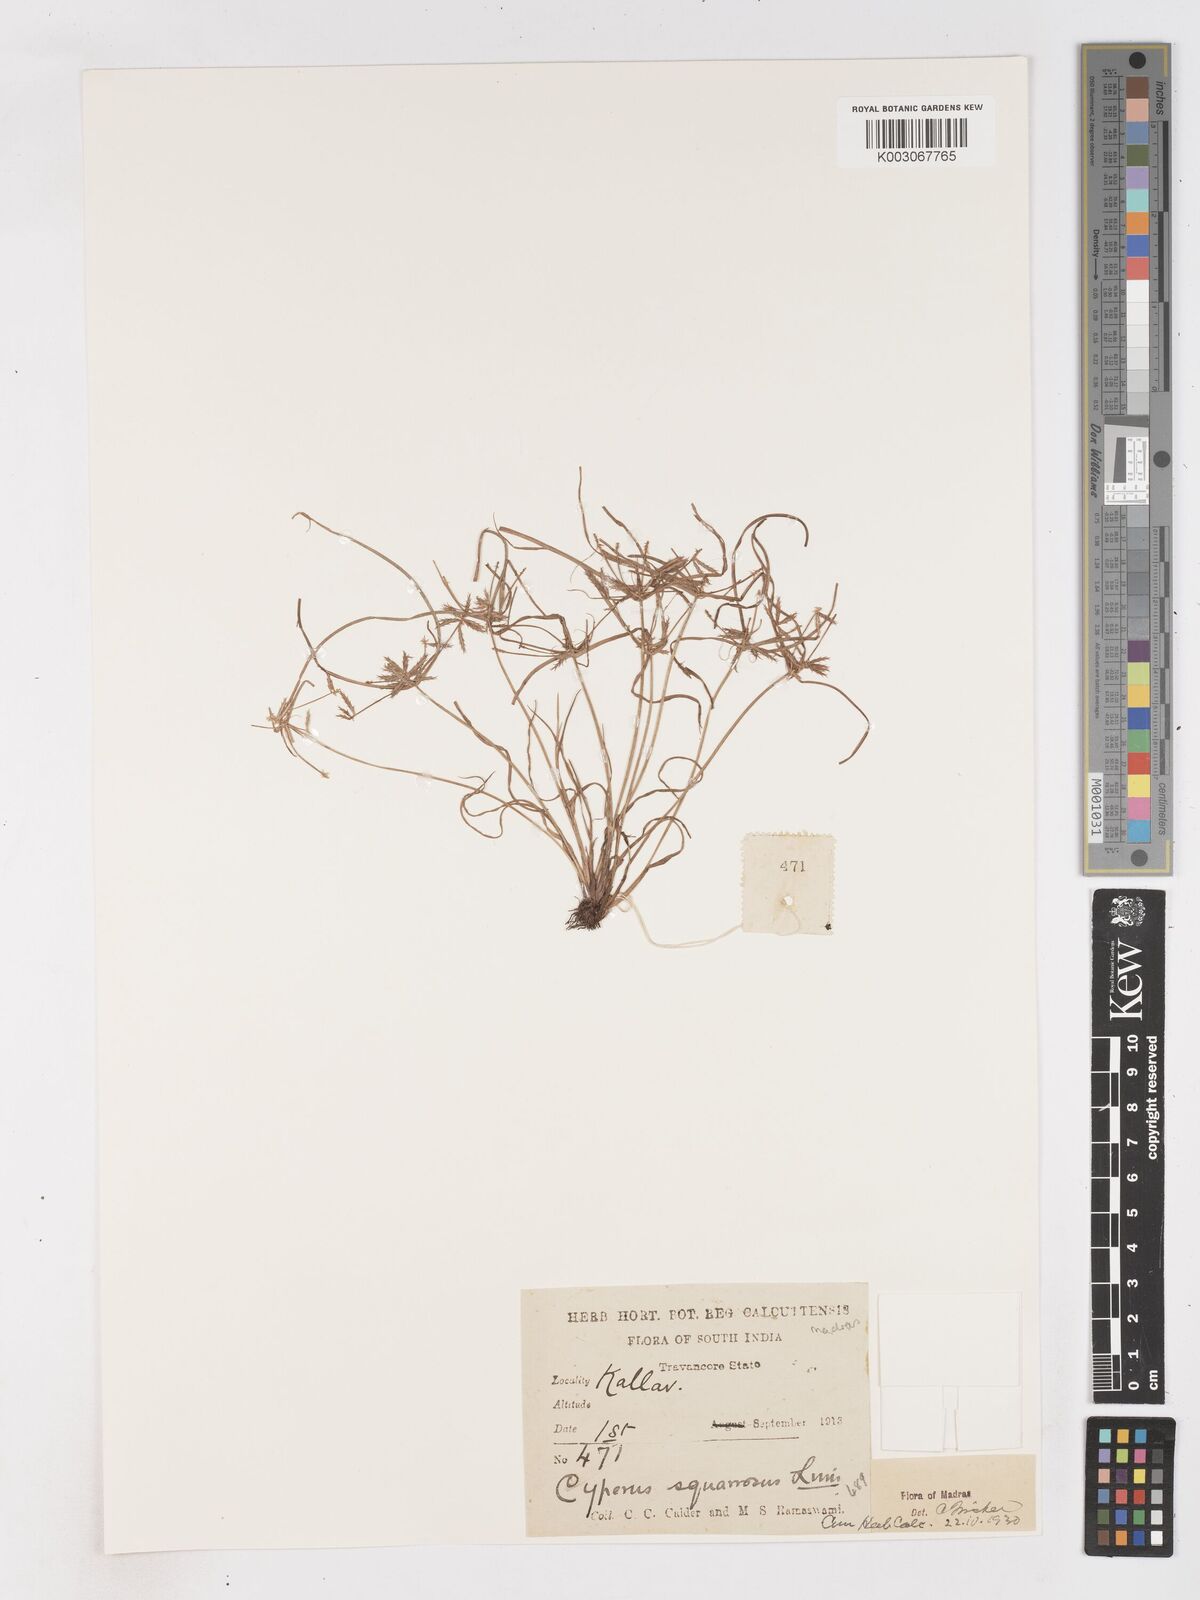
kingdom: Plantae
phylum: Tracheophyta
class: Liliopsida
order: Poales
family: Cyperaceae
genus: Cyperus
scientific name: Cyperus maderaspatanus
